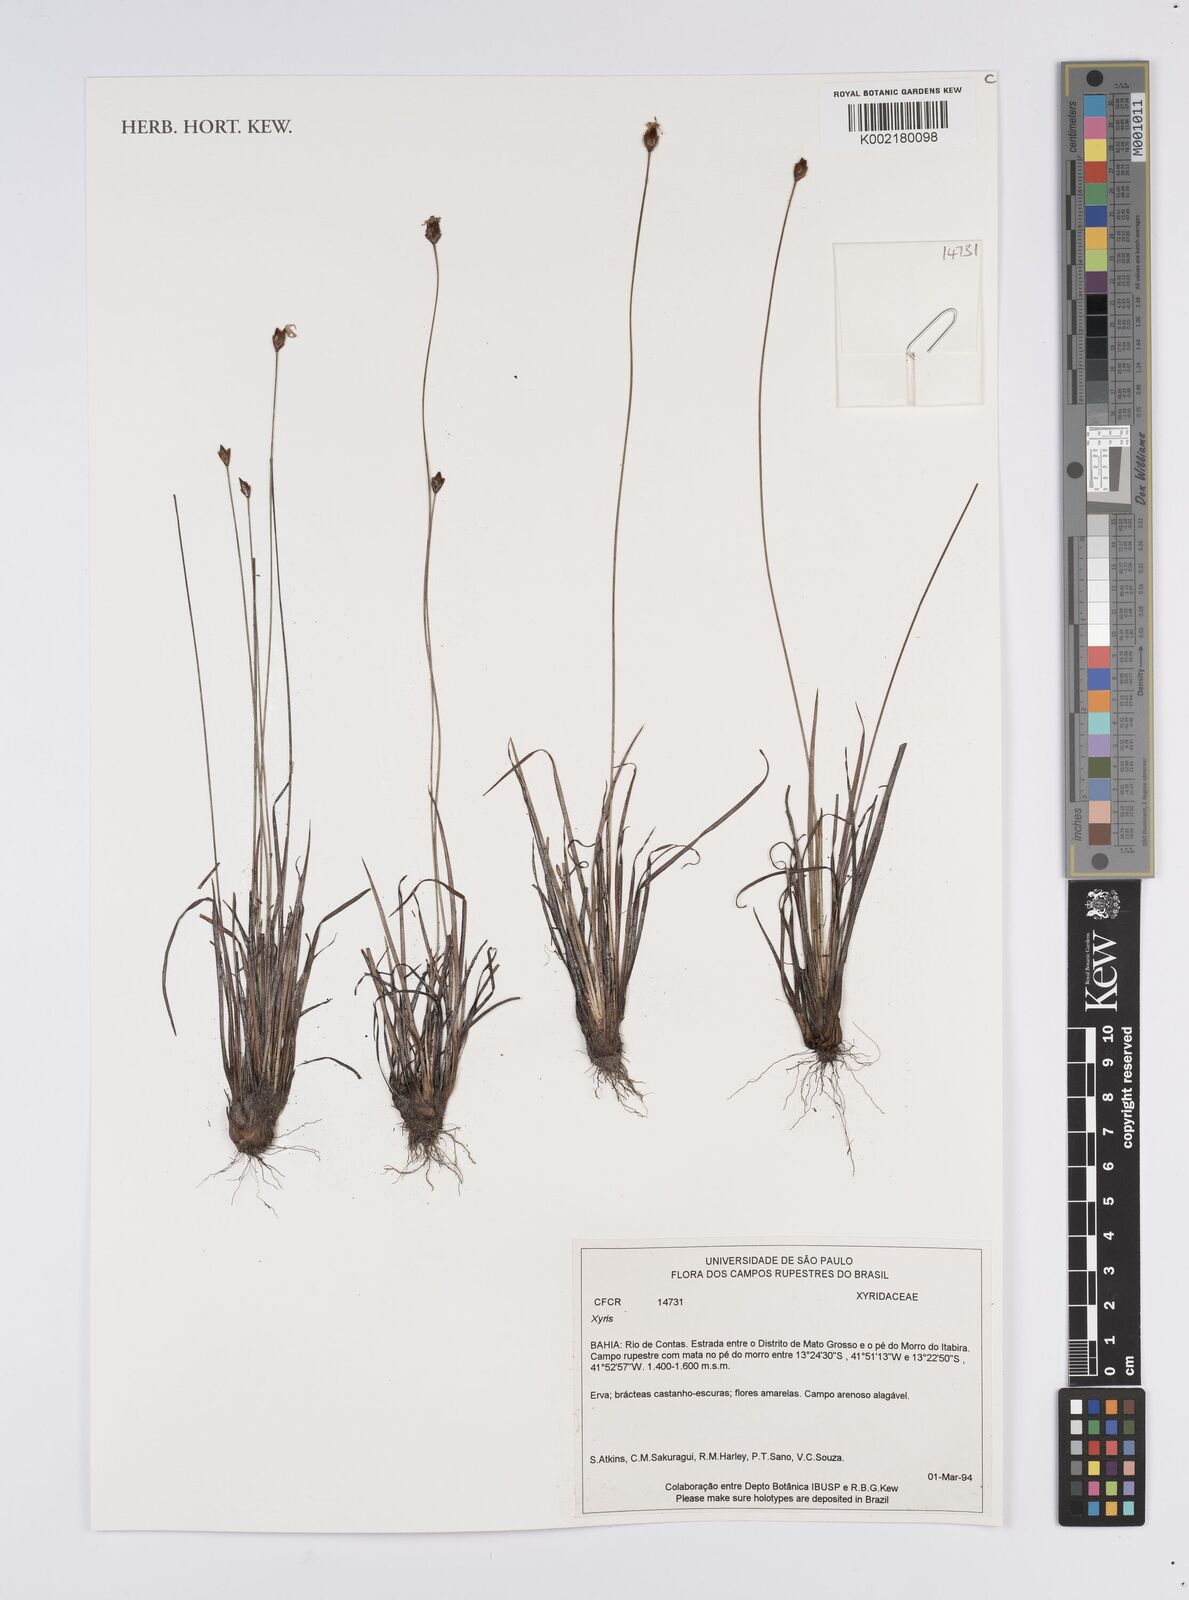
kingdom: Plantae
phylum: Tracheophyta
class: Liliopsida
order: Poales
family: Xyridaceae
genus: Xyris
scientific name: Xyris
